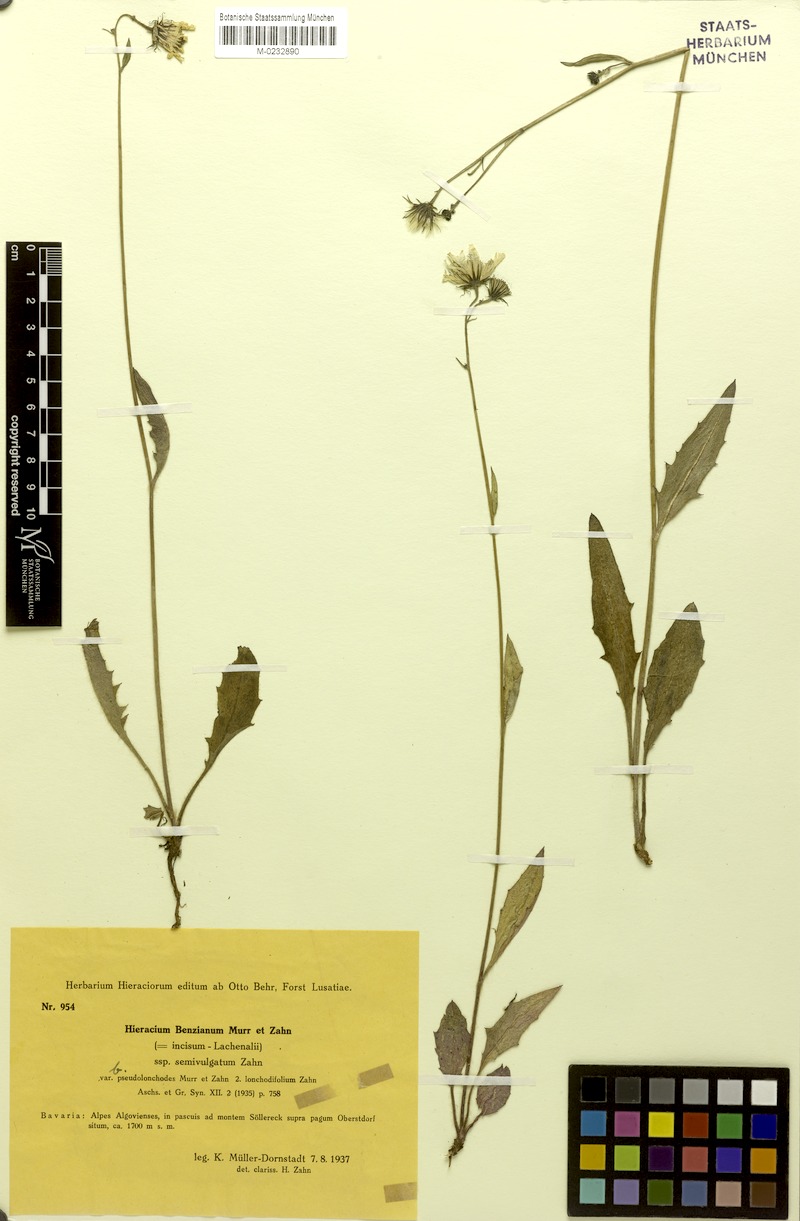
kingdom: Plantae
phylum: Tracheophyta
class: Magnoliopsida
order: Asterales
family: Asteraceae
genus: Hieracium
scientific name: Hieracium benzianum
